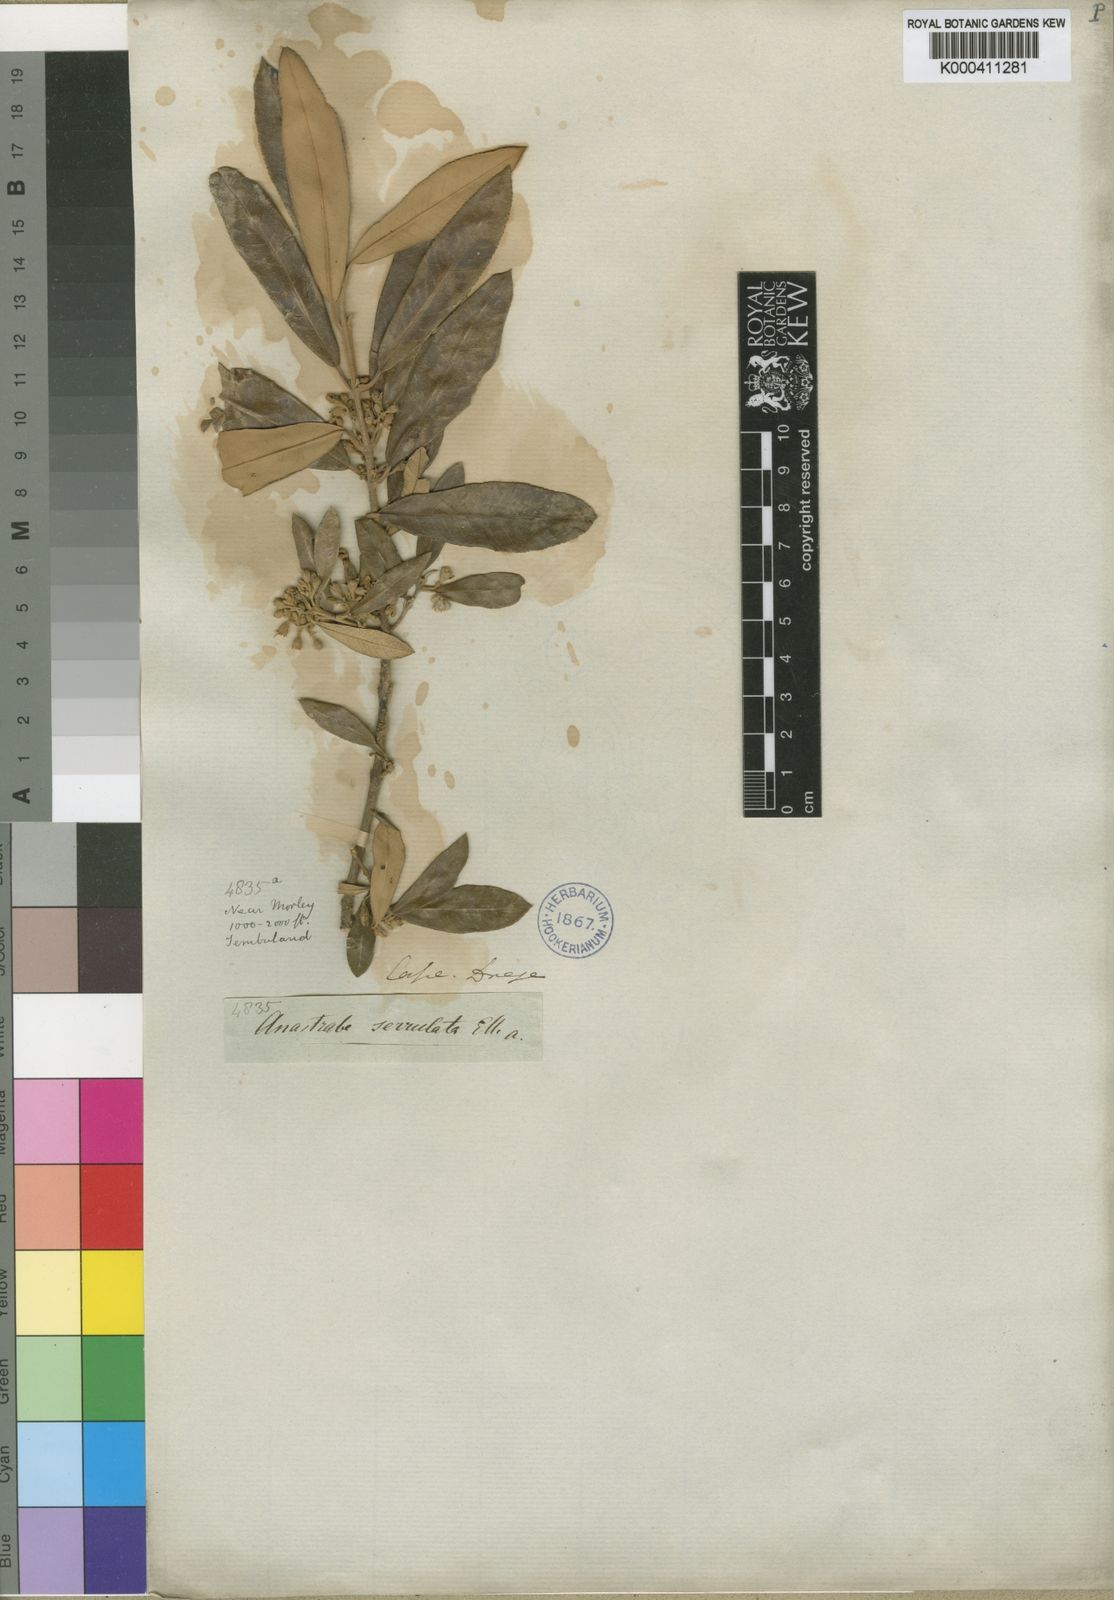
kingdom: Plantae
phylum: Tracheophyta
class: Magnoliopsida
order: Lamiales
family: Stilbaceae
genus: Anastrabe
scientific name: Anastrabe integerrima
